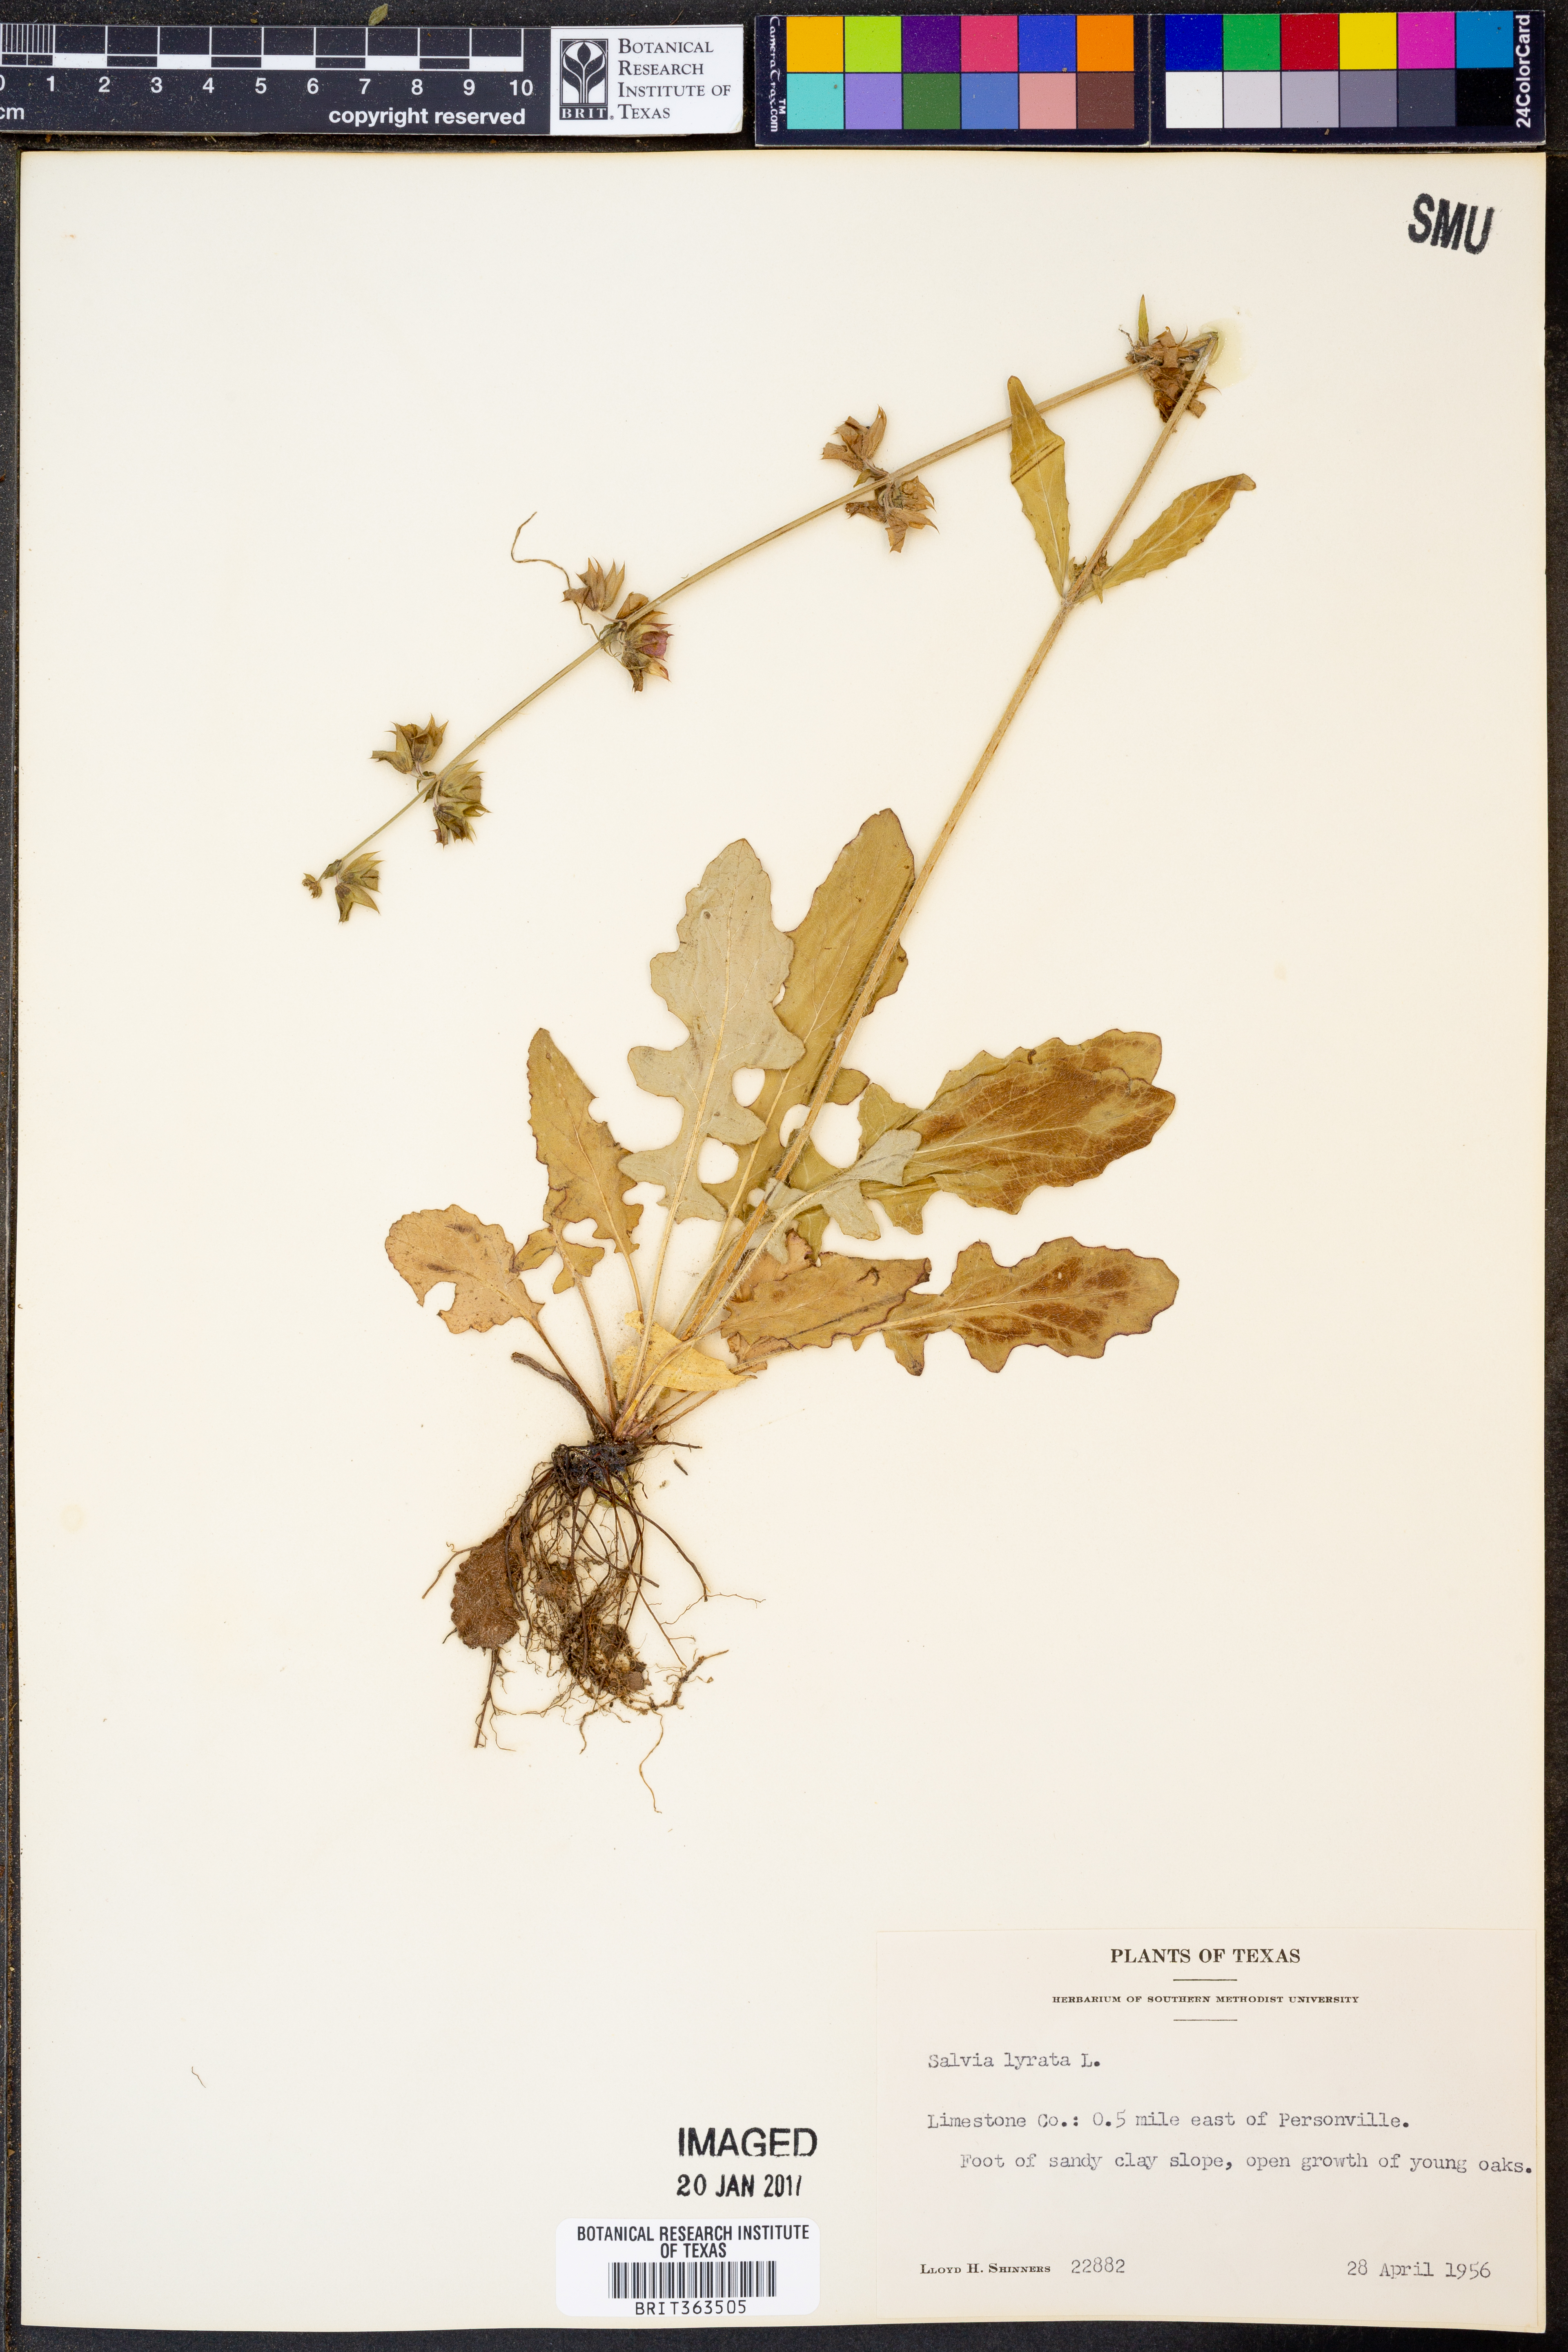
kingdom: Plantae
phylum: Tracheophyta
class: Magnoliopsida
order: Lamiales
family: Lamiaceae
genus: Salvia
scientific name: Salvia lyrata
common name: Cancerweed
